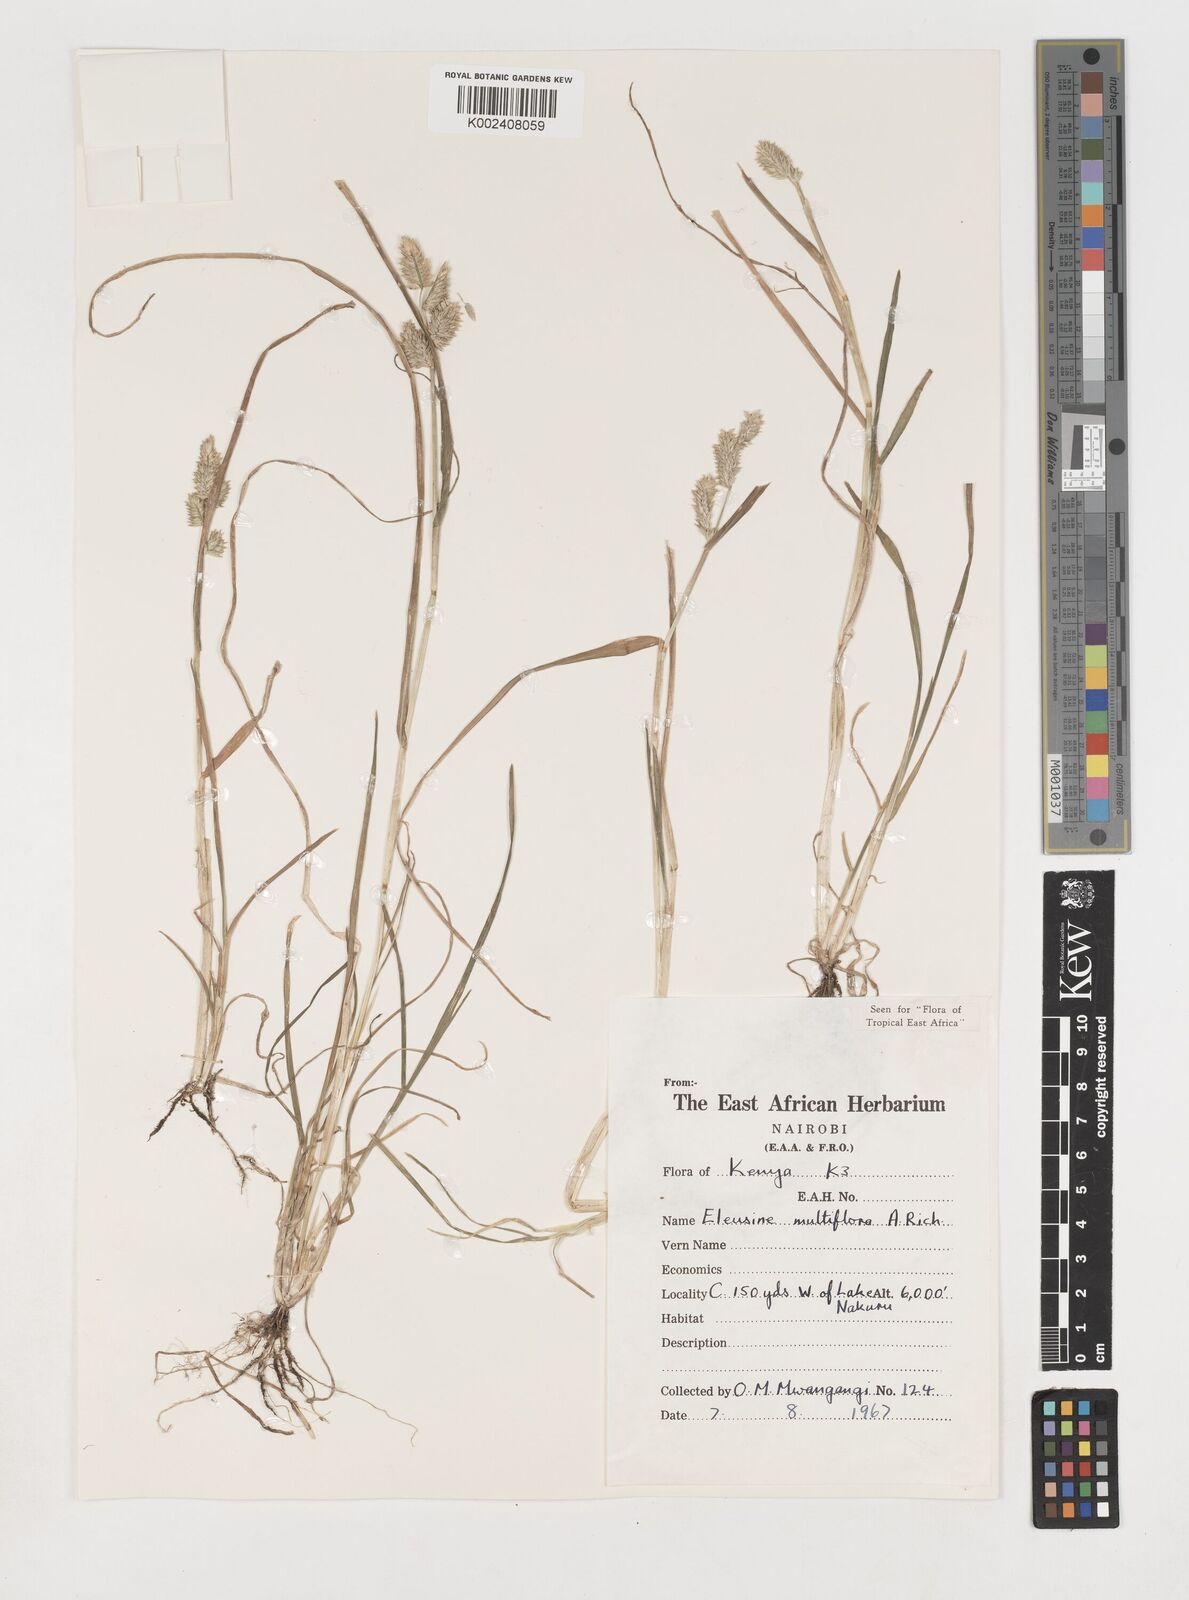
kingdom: Plantae
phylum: Tracheophyta
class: Liliopsida
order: Poales
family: Poaceae
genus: Eleusine
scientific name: Eleusine multiflora
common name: Fat-spiked yard-grass
